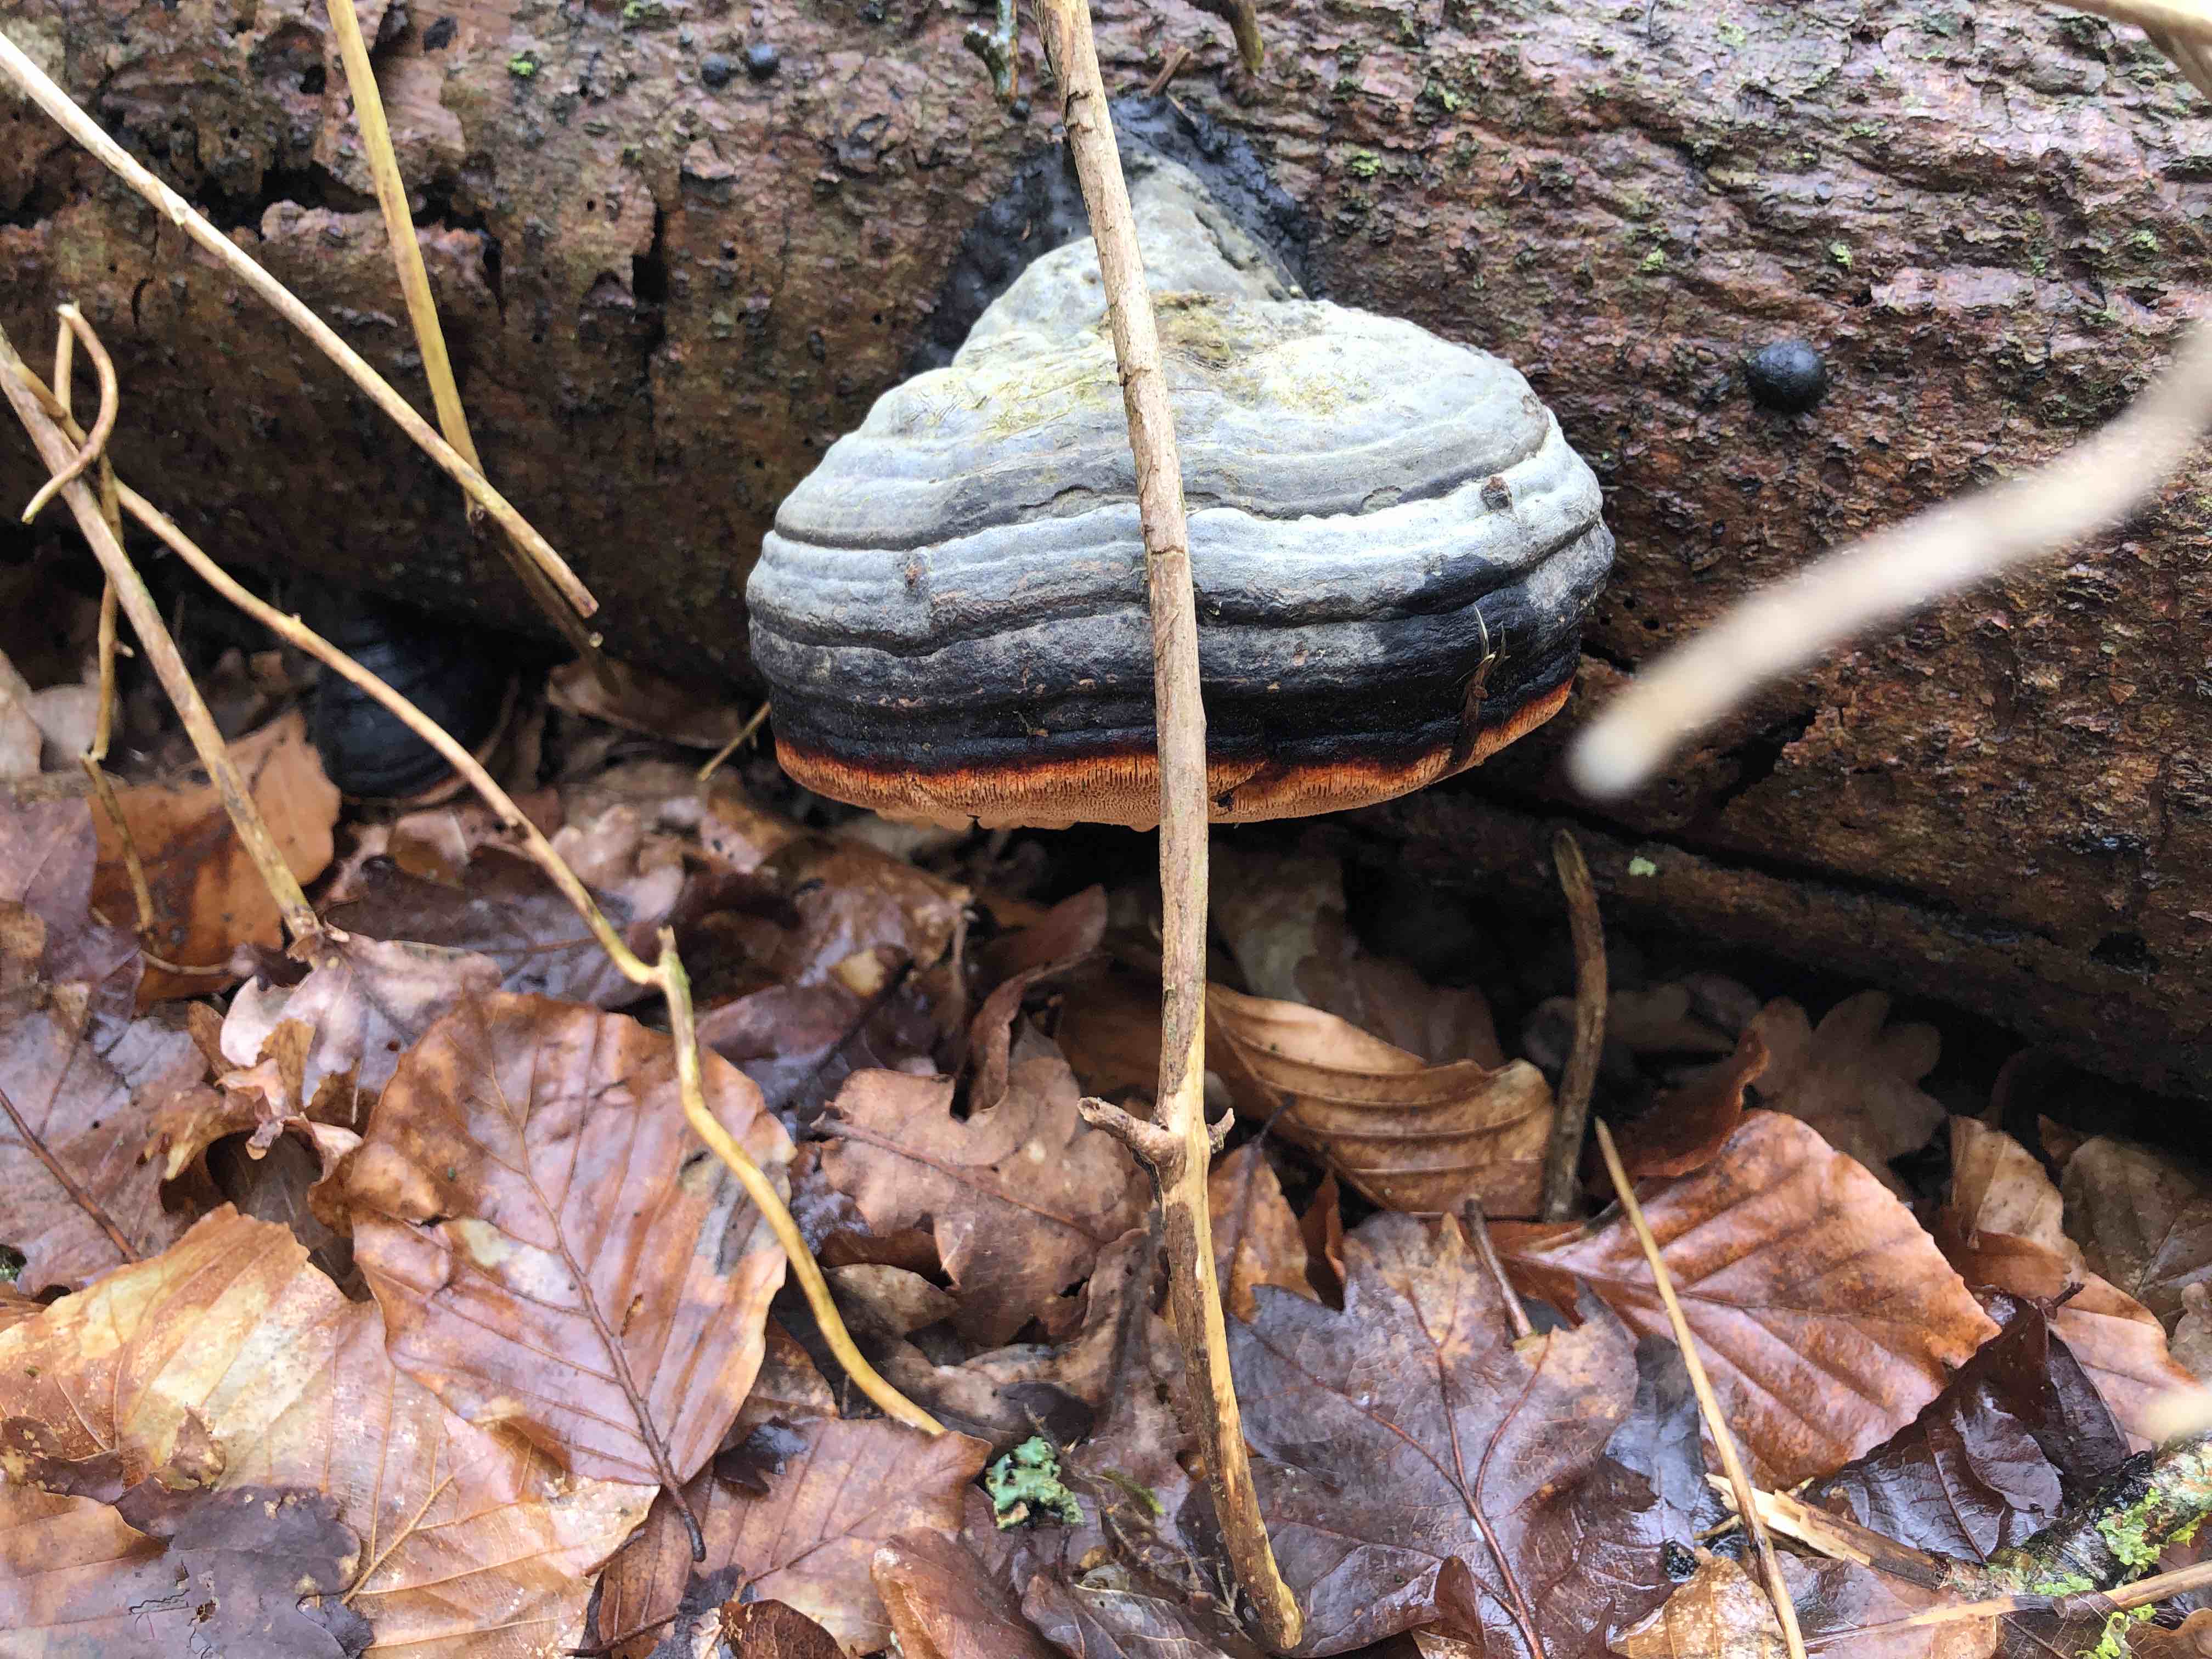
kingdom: Fungi
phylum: Basidiomycota
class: Agaricomycetes
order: Polyporales
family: Fomitopsidaceae
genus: Fomitopsis
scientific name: Fomitopsis pinicola
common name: randbæltet hovporesvamp
